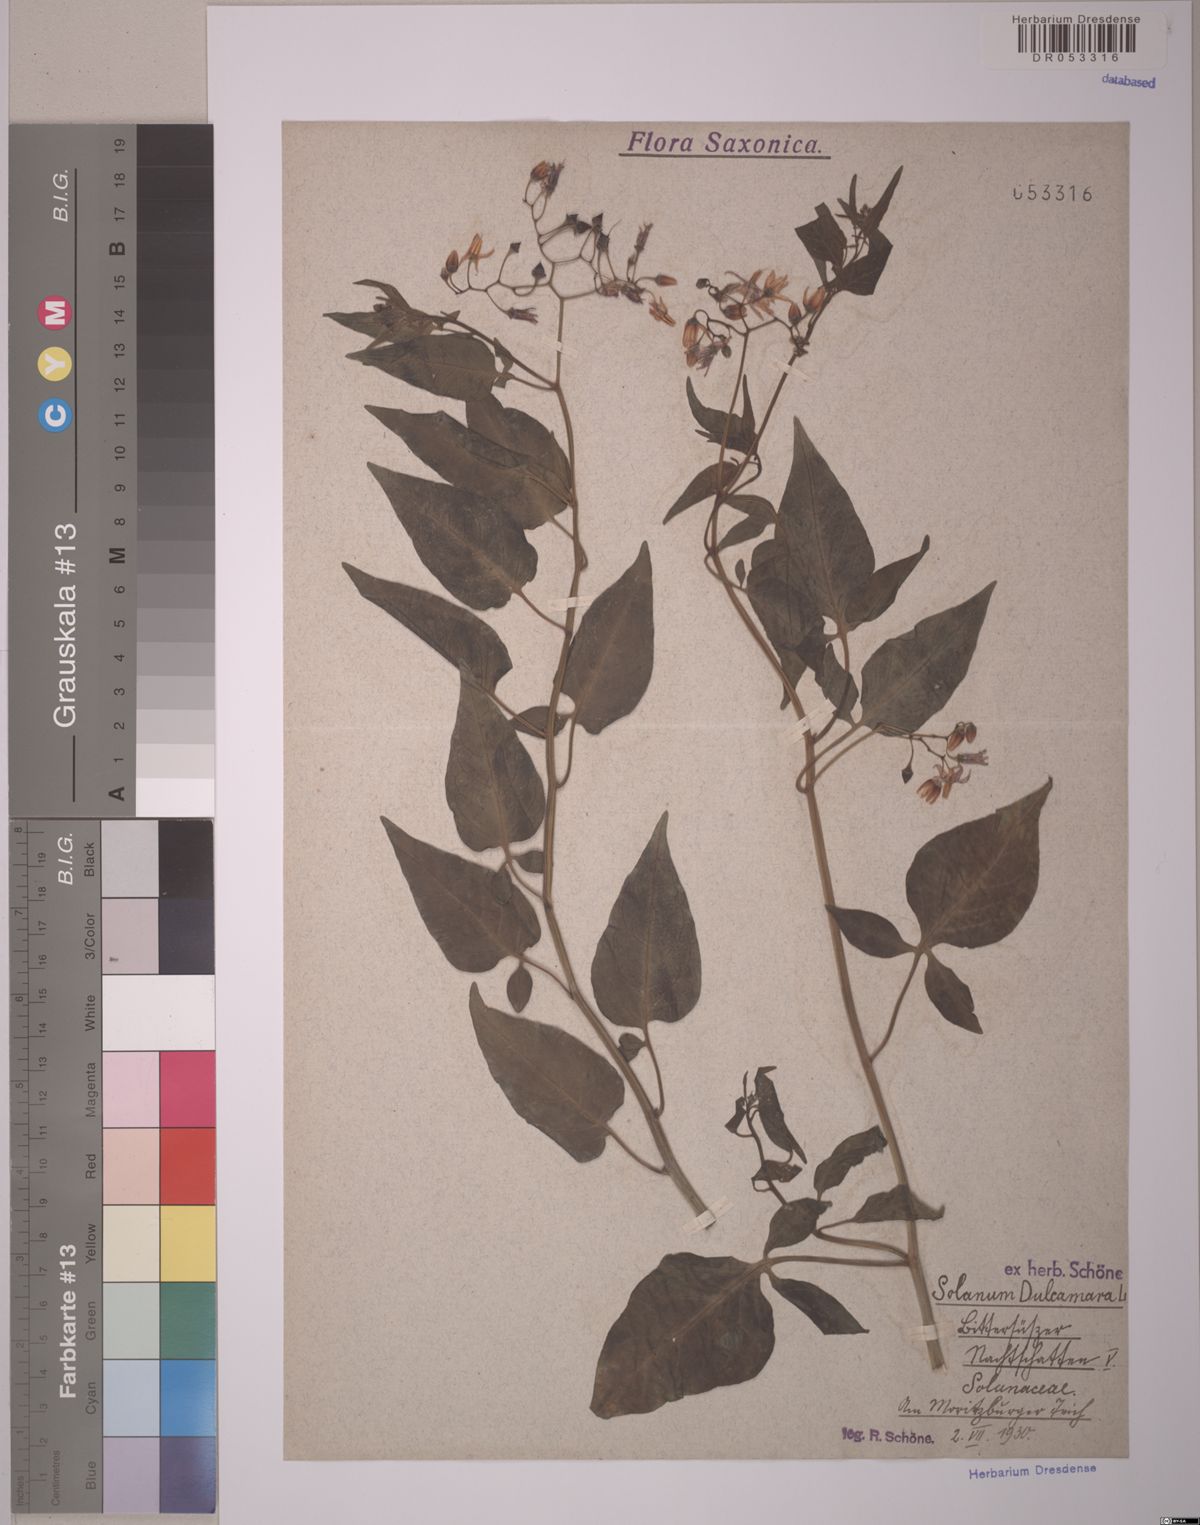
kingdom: Plantae
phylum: Tracheophyta
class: Magnoliopsida
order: Solanales
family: Solanaceae
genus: Solanum
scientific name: Solanum dulcamara
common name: Climbing nightshade
